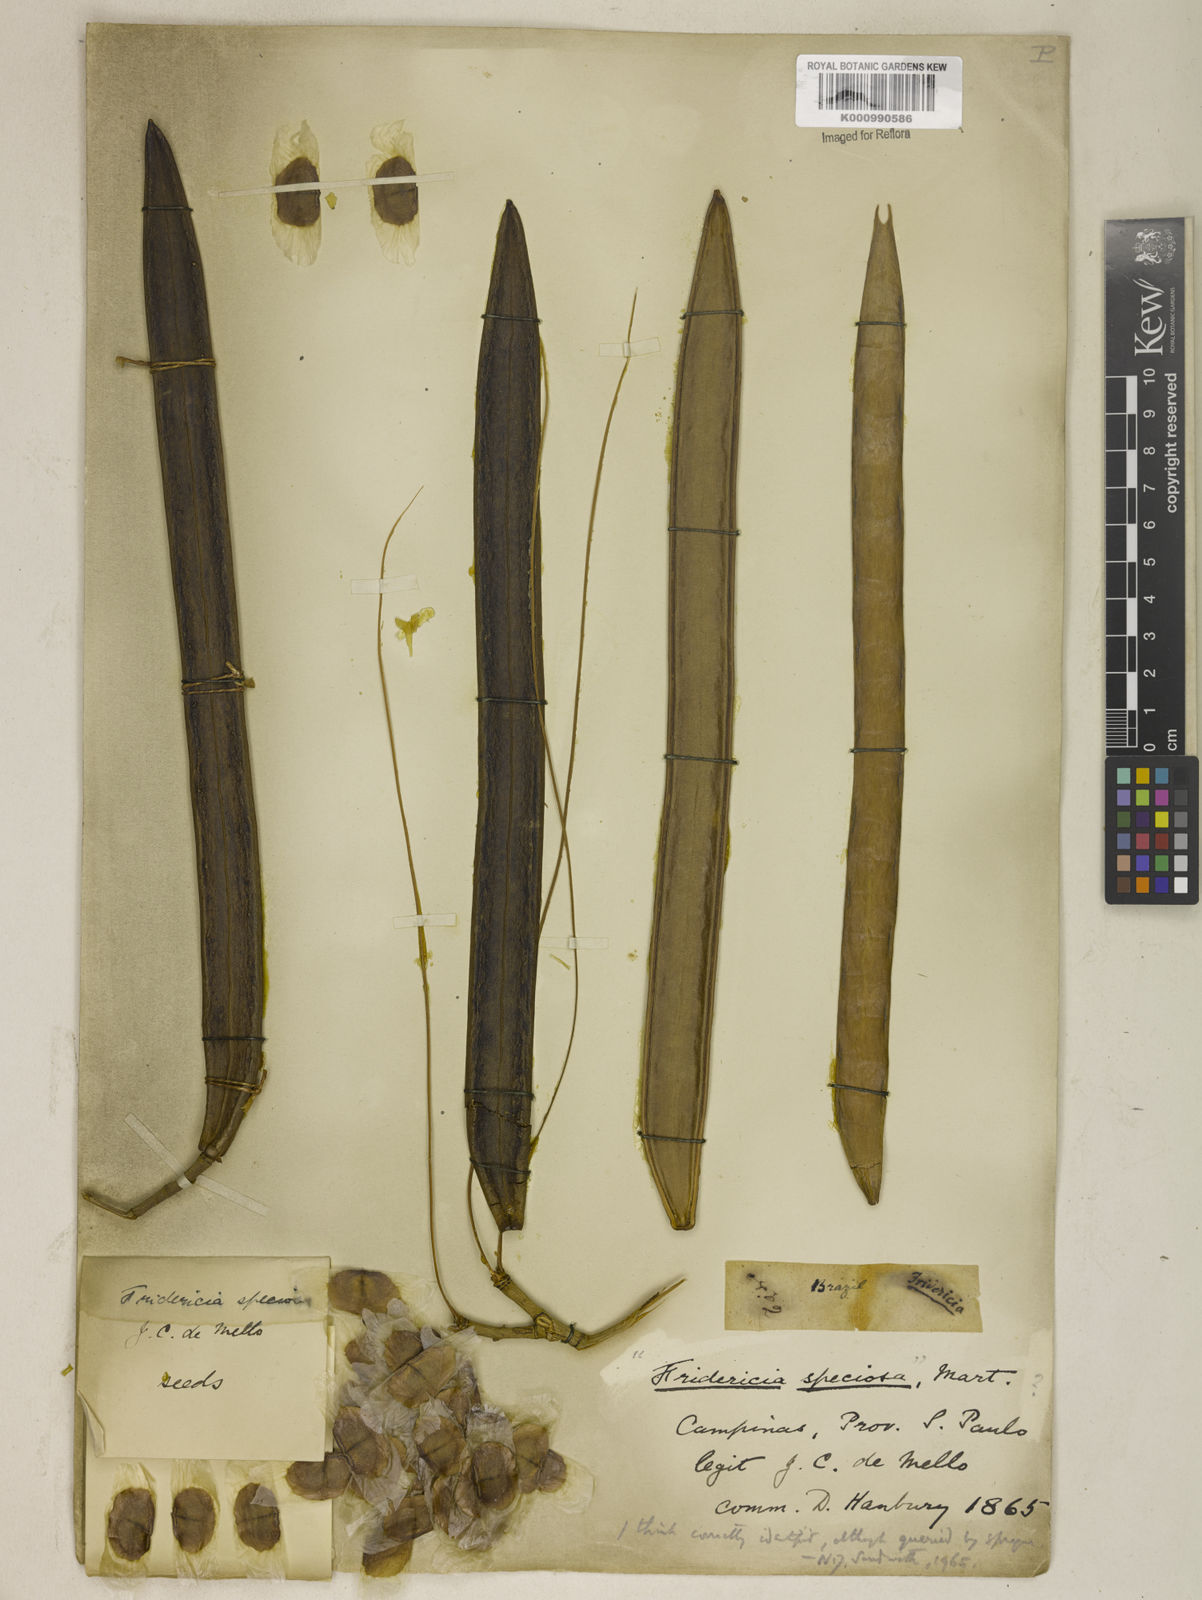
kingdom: Plantae
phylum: Tracheophyta
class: Magnoliopsida
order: Lamiales
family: Bignoniaceae
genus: Fridericia
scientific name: Fridericia speciosa
